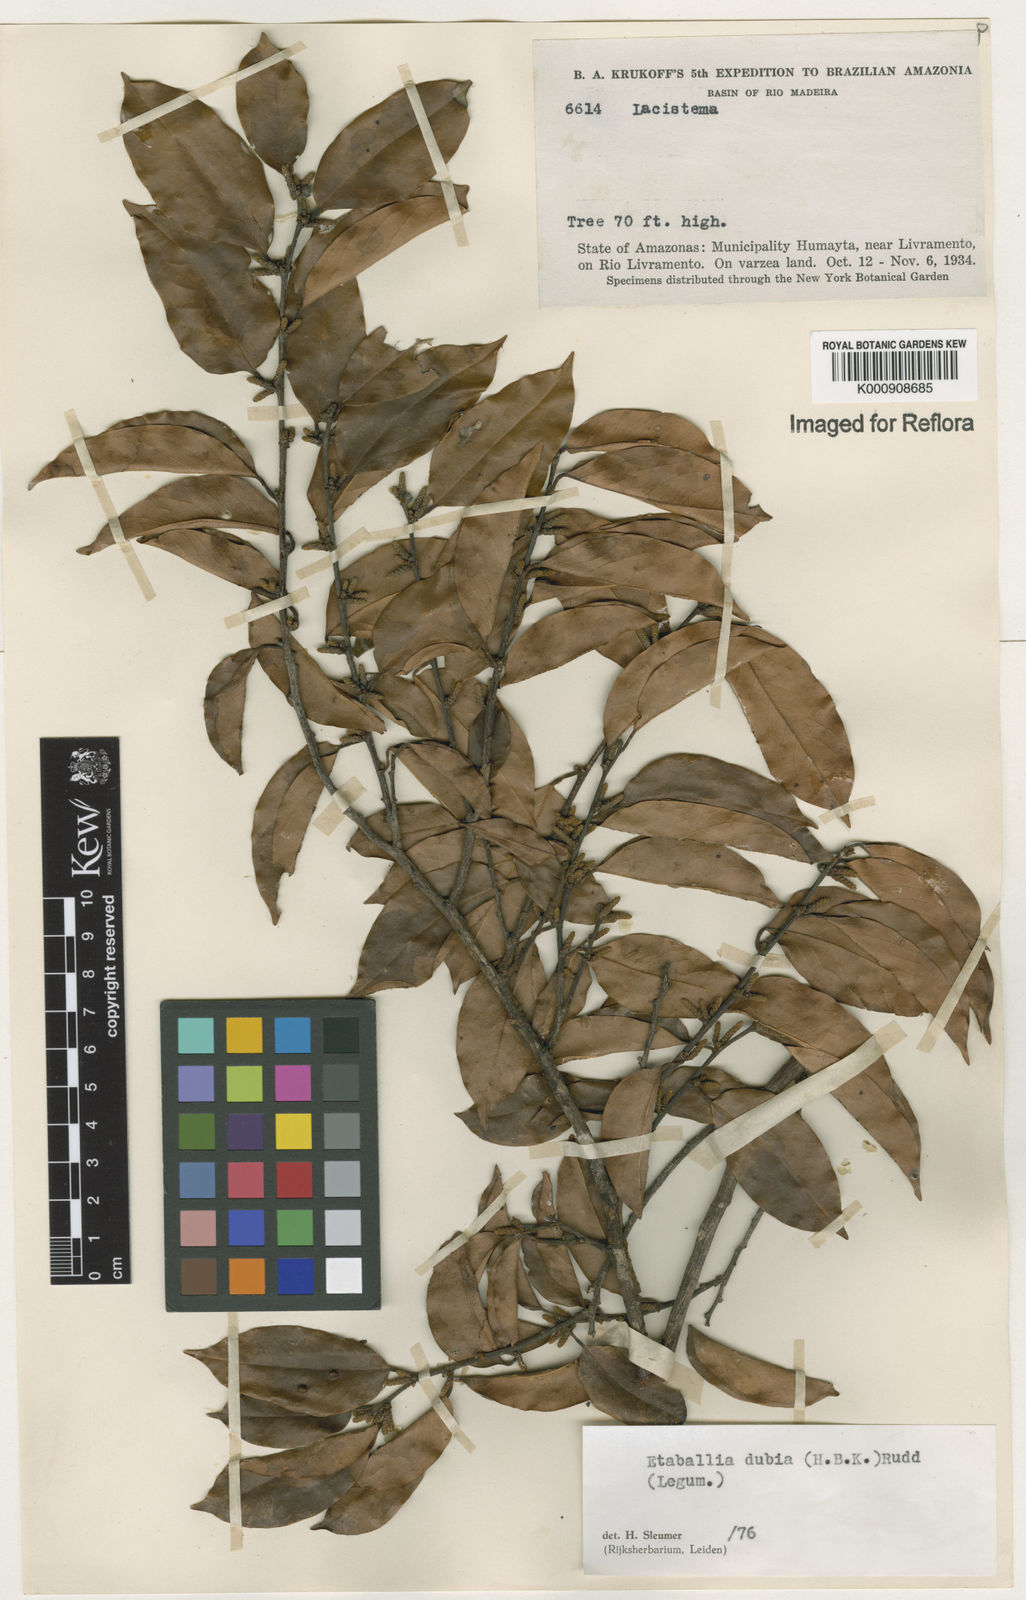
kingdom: Plantae
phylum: Tracheophyta
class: Magnoliopsida
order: Fabales
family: Fabaceae
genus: Pterocarpus
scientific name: Pterocarpus dubius
